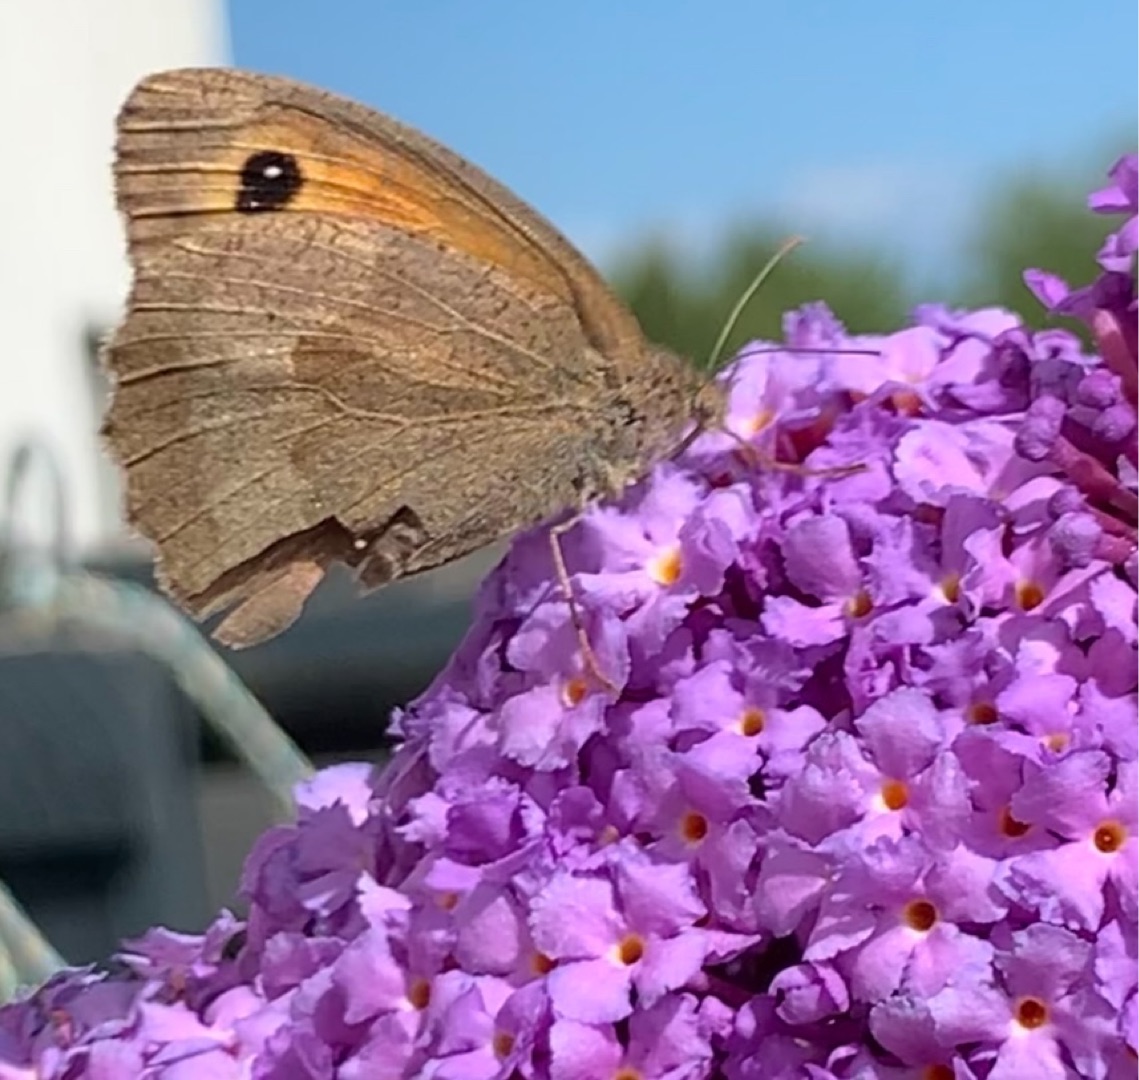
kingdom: Animalia
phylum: Arthropoda
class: Insecta
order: Lepidoptera
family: Nymphalidae
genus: Maniola
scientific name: Maniola jurtina
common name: Græsrandøje
